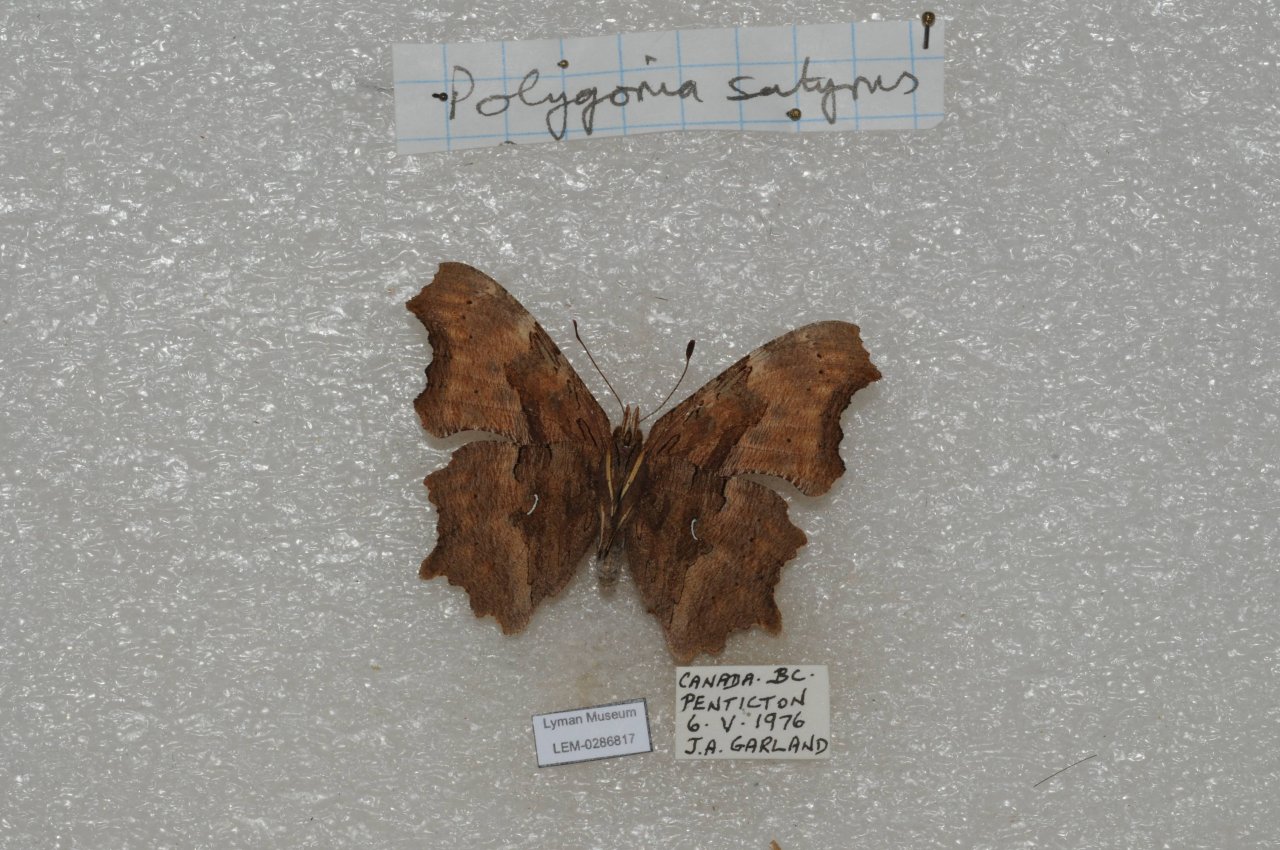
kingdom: Animalia
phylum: Arthropoda
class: Insecta
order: Lepidoptera
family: Nymphalidae
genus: Polygonia
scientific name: Polygonia satyrus
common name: Satyr Comma
